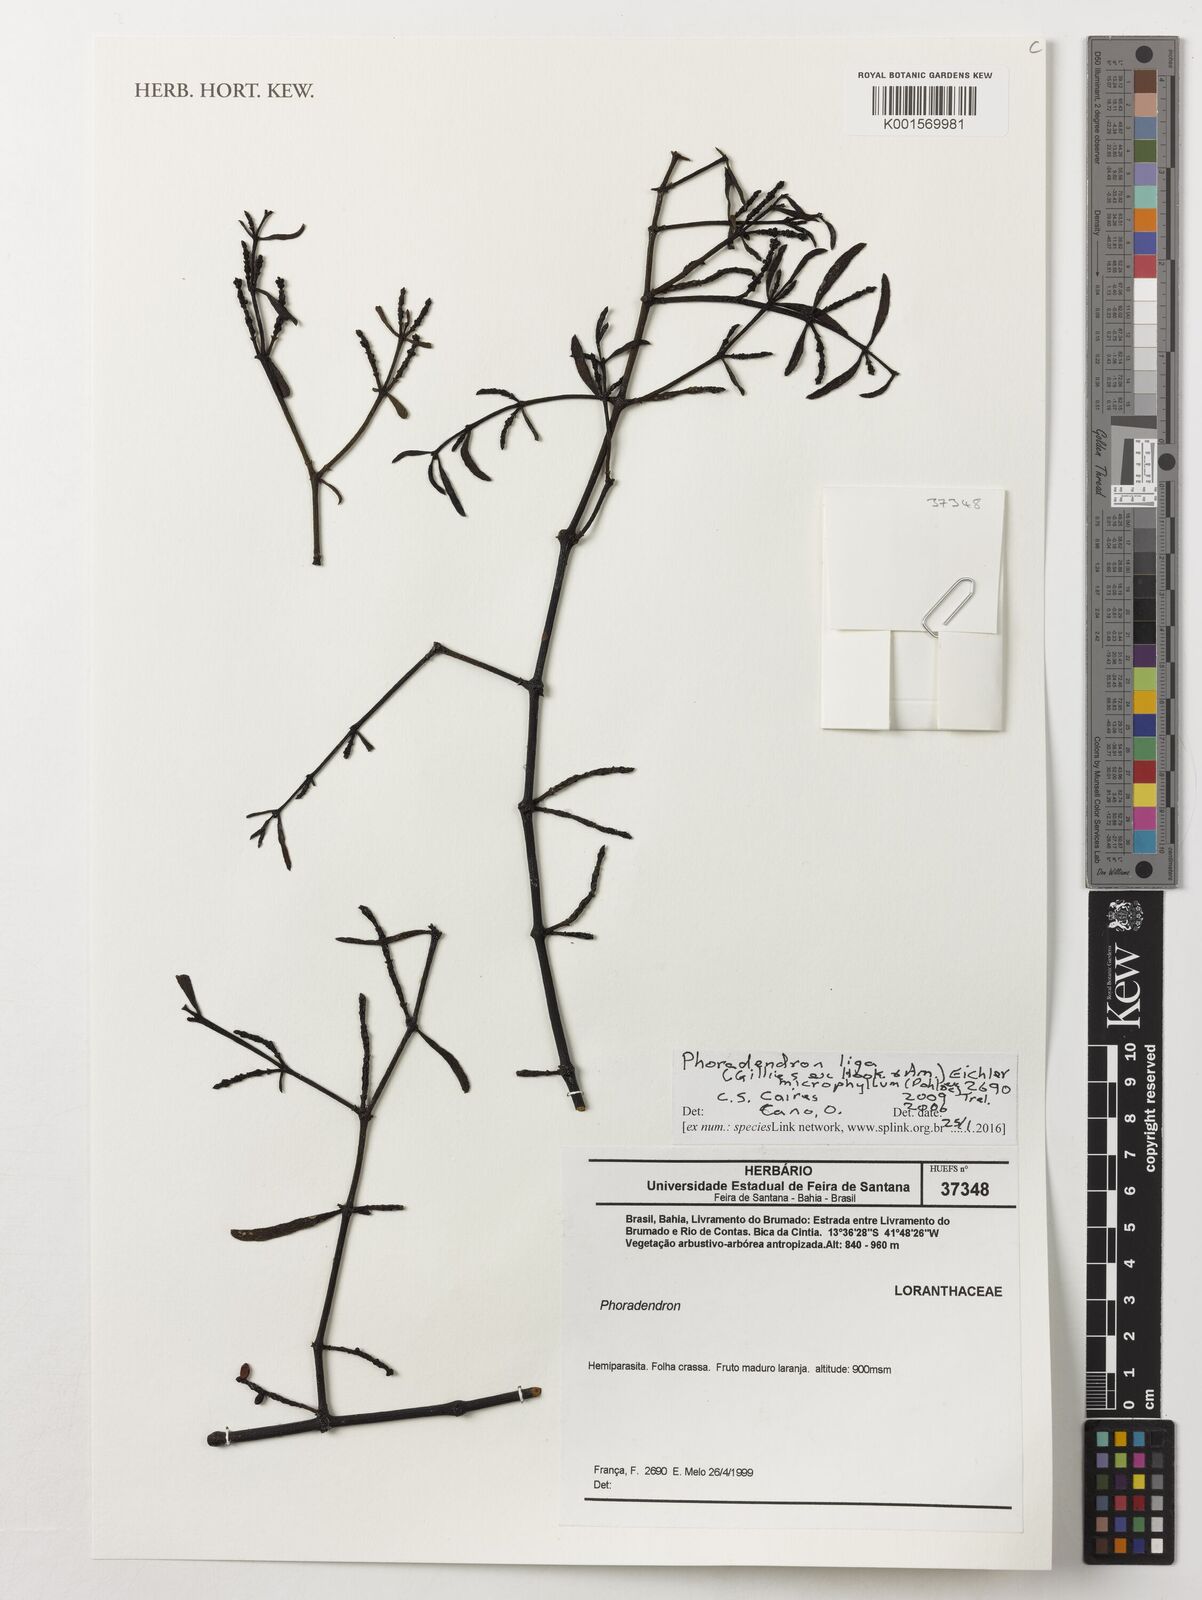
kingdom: Plantae
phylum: Tracheophyta
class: Magnoliopsida
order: Santalales
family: Viscaceae
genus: Phoradendron
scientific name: Phoradendron liga
